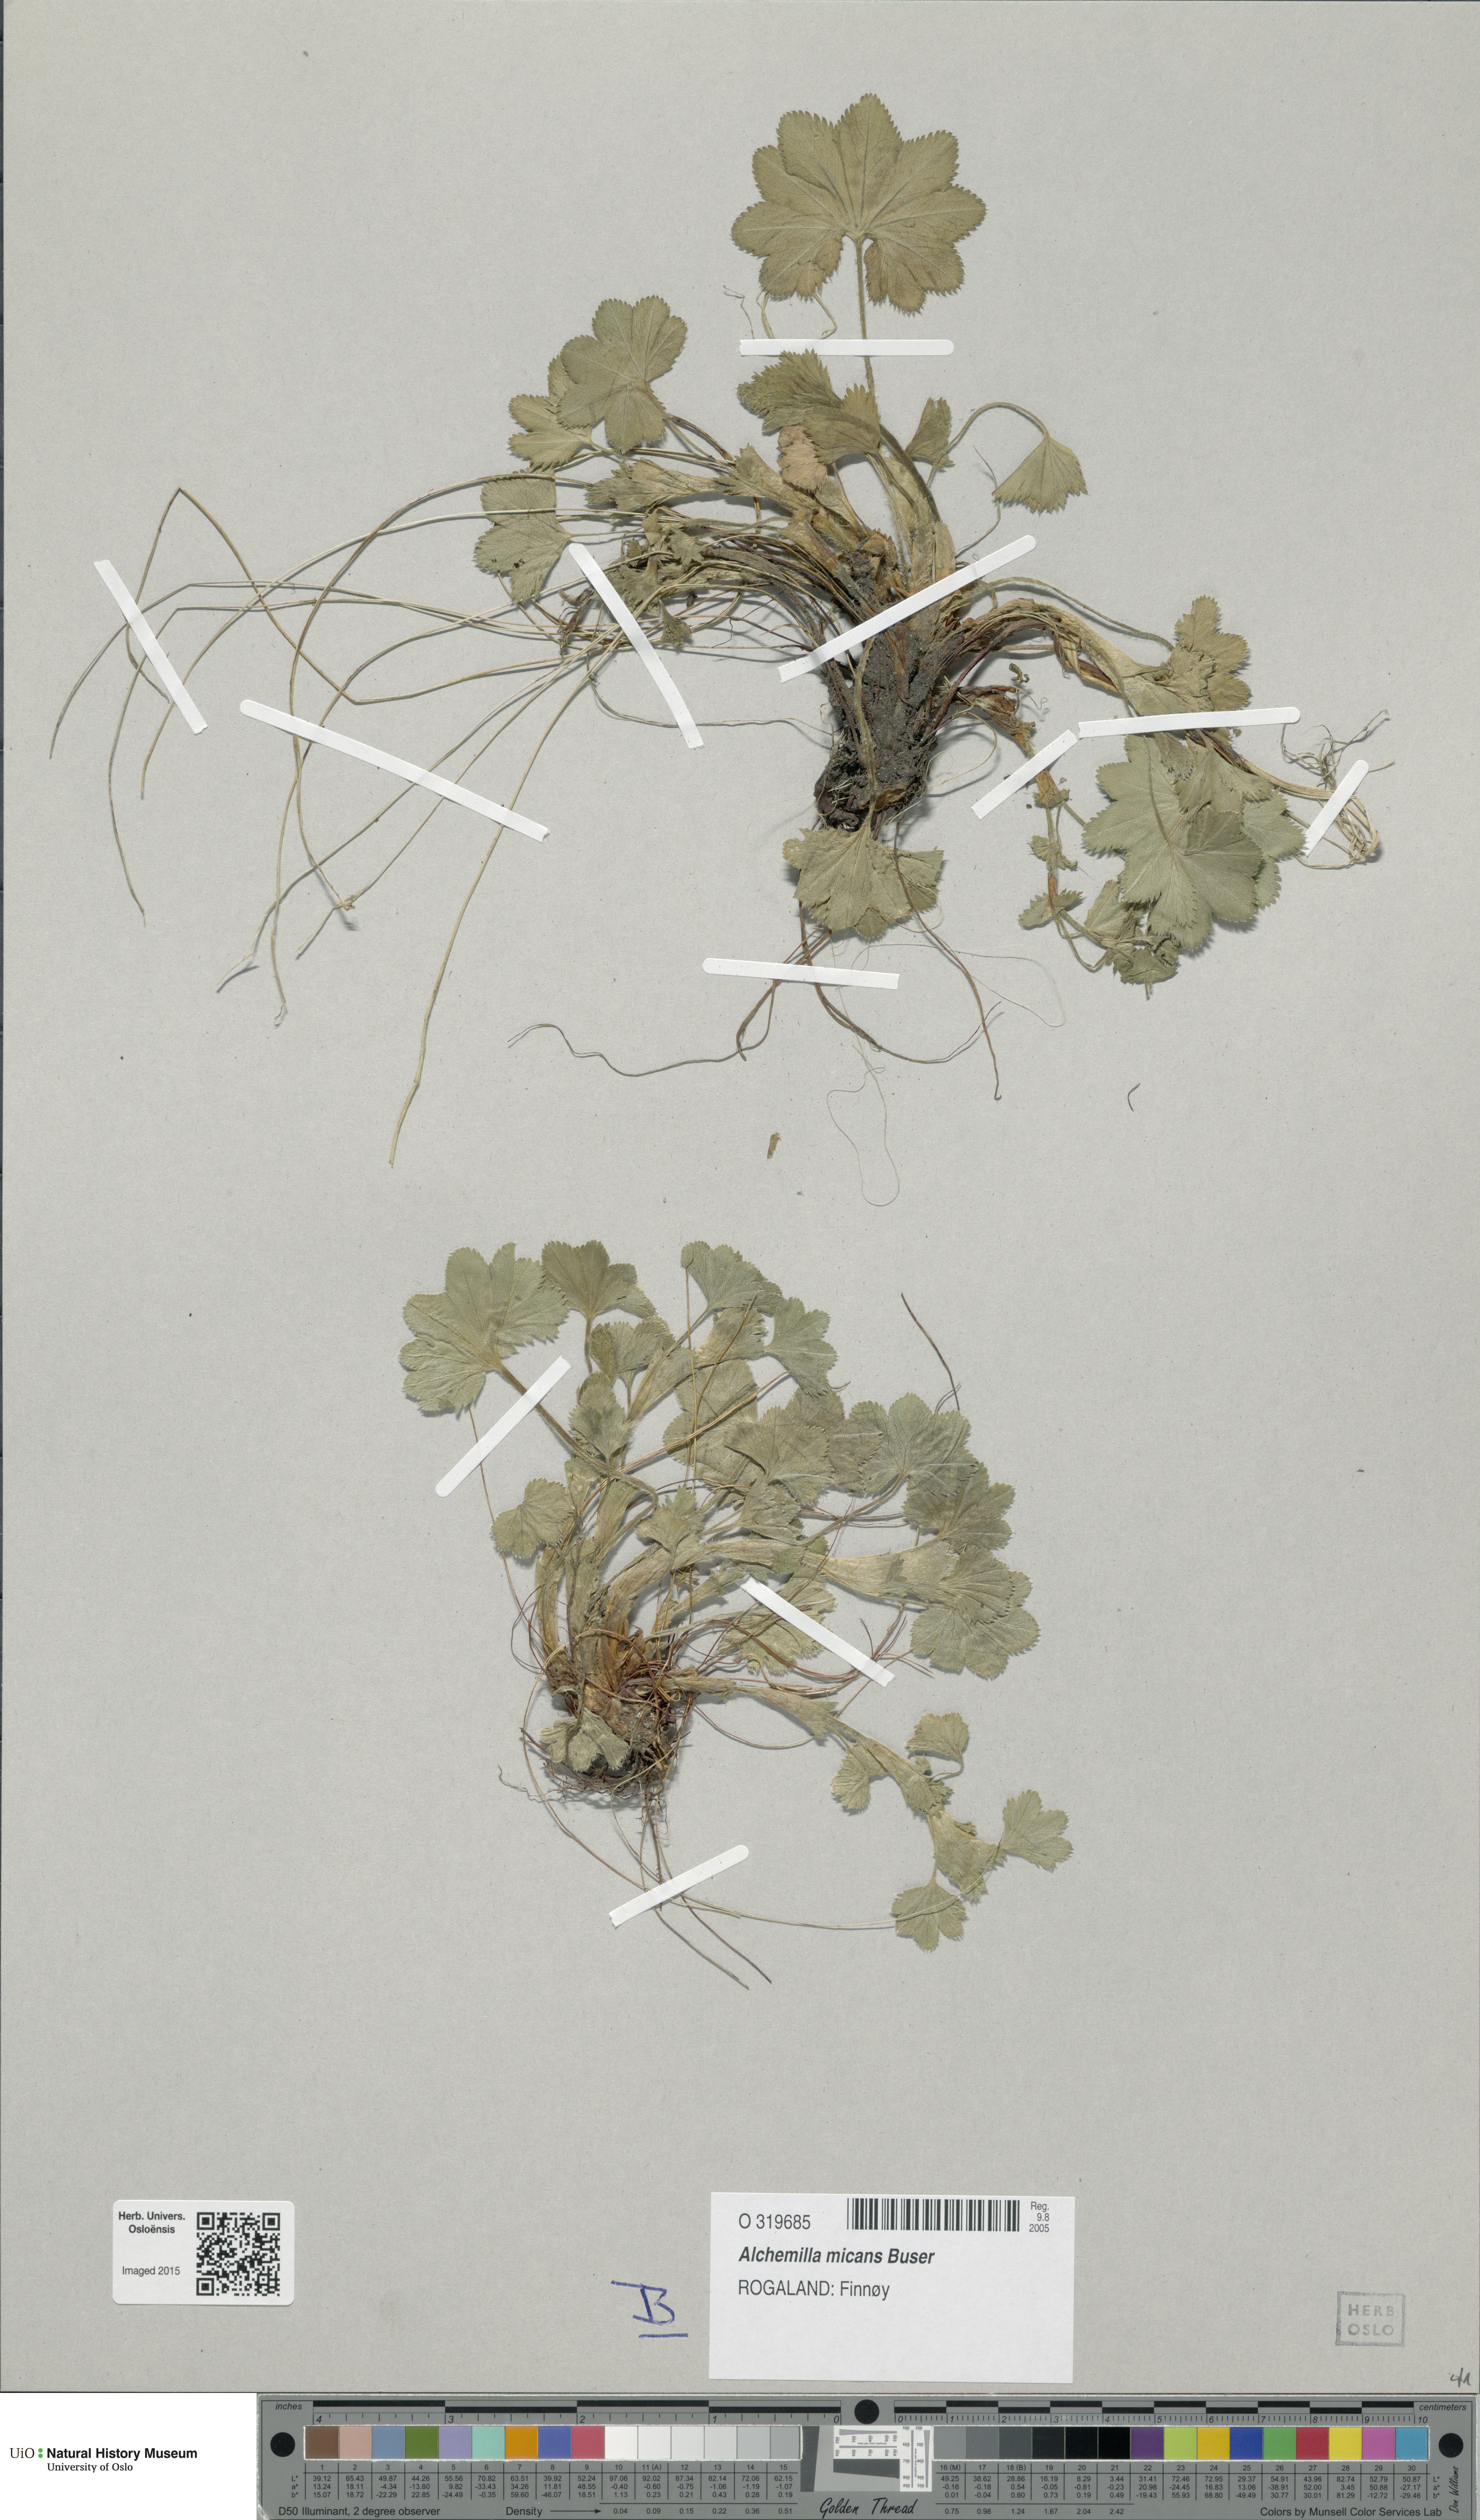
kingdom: Plantae
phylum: Tracheophyta
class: Magnoliopsida
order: Rosales
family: Rosaceae
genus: Alchemilla
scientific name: Alchemilla micans
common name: Gleaming lady's mantle
